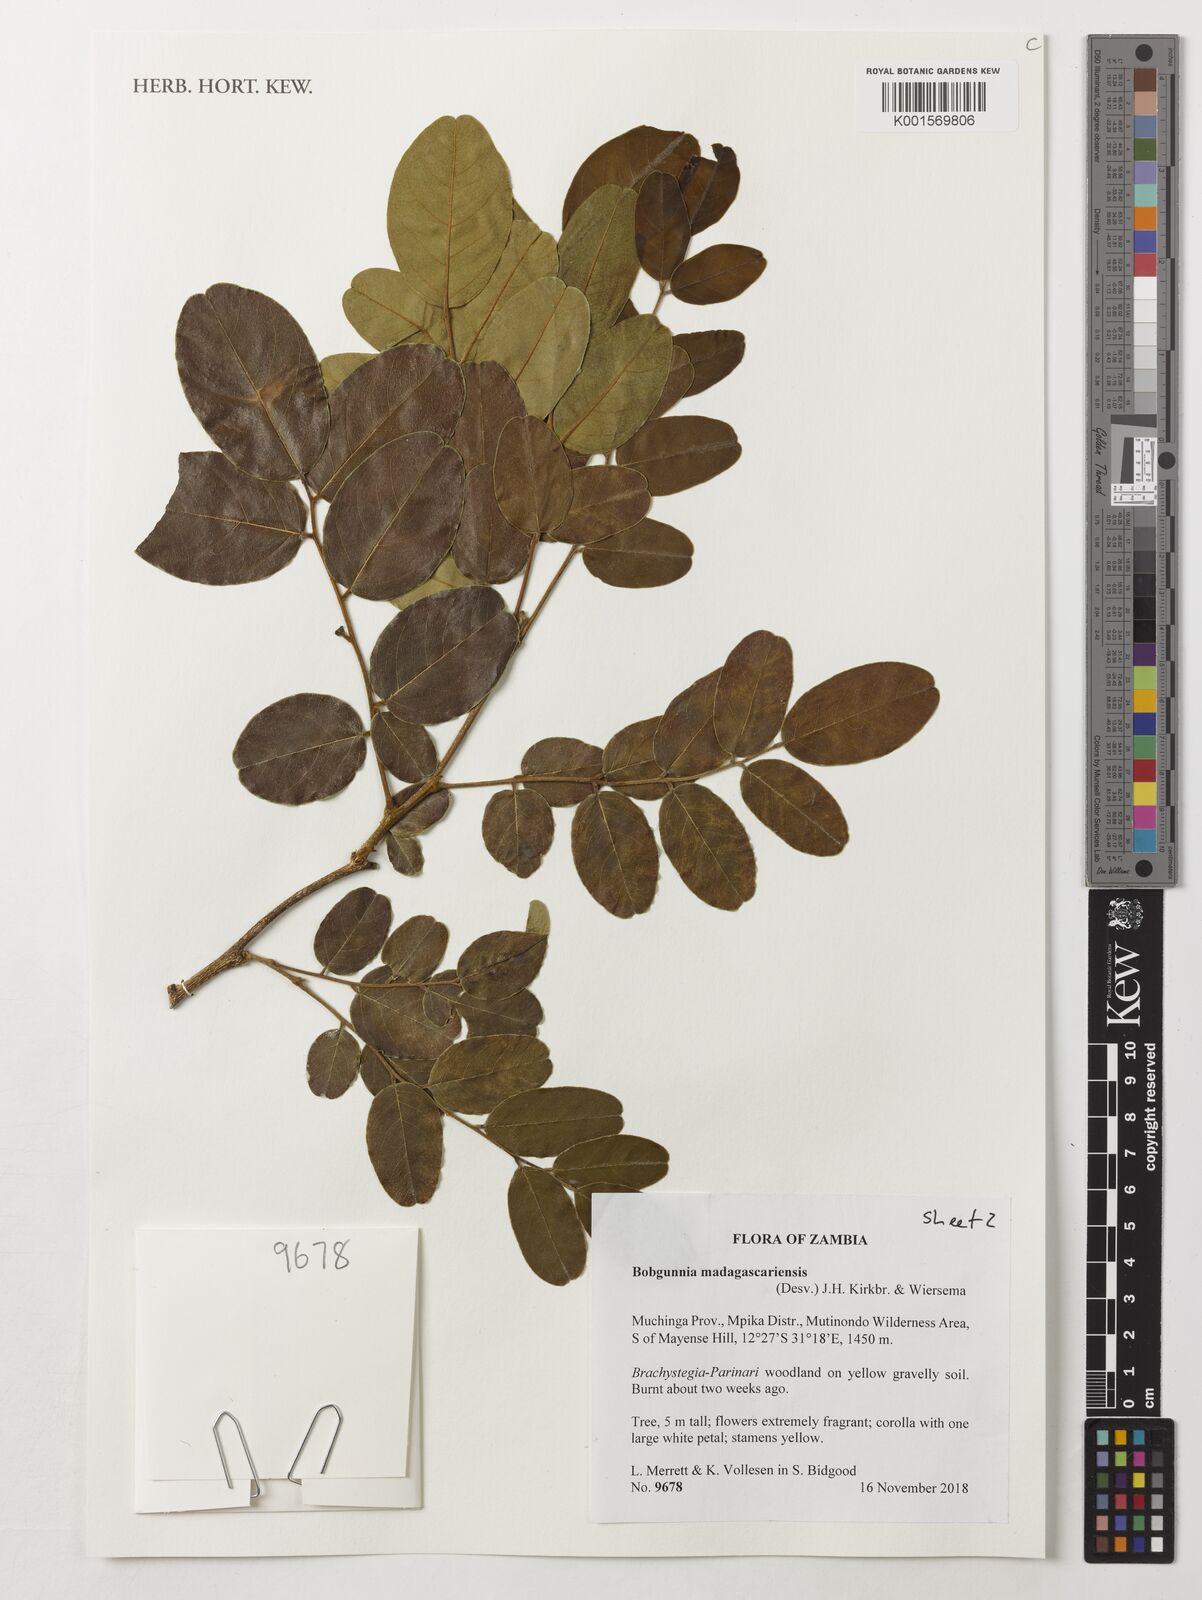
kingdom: Plantae
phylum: Tracheophyta
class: Magnoliopsida
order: Fabales
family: Fabaceae
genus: Bobgunnia
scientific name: Bobgunnia madagascariensis
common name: Snake bean plant
